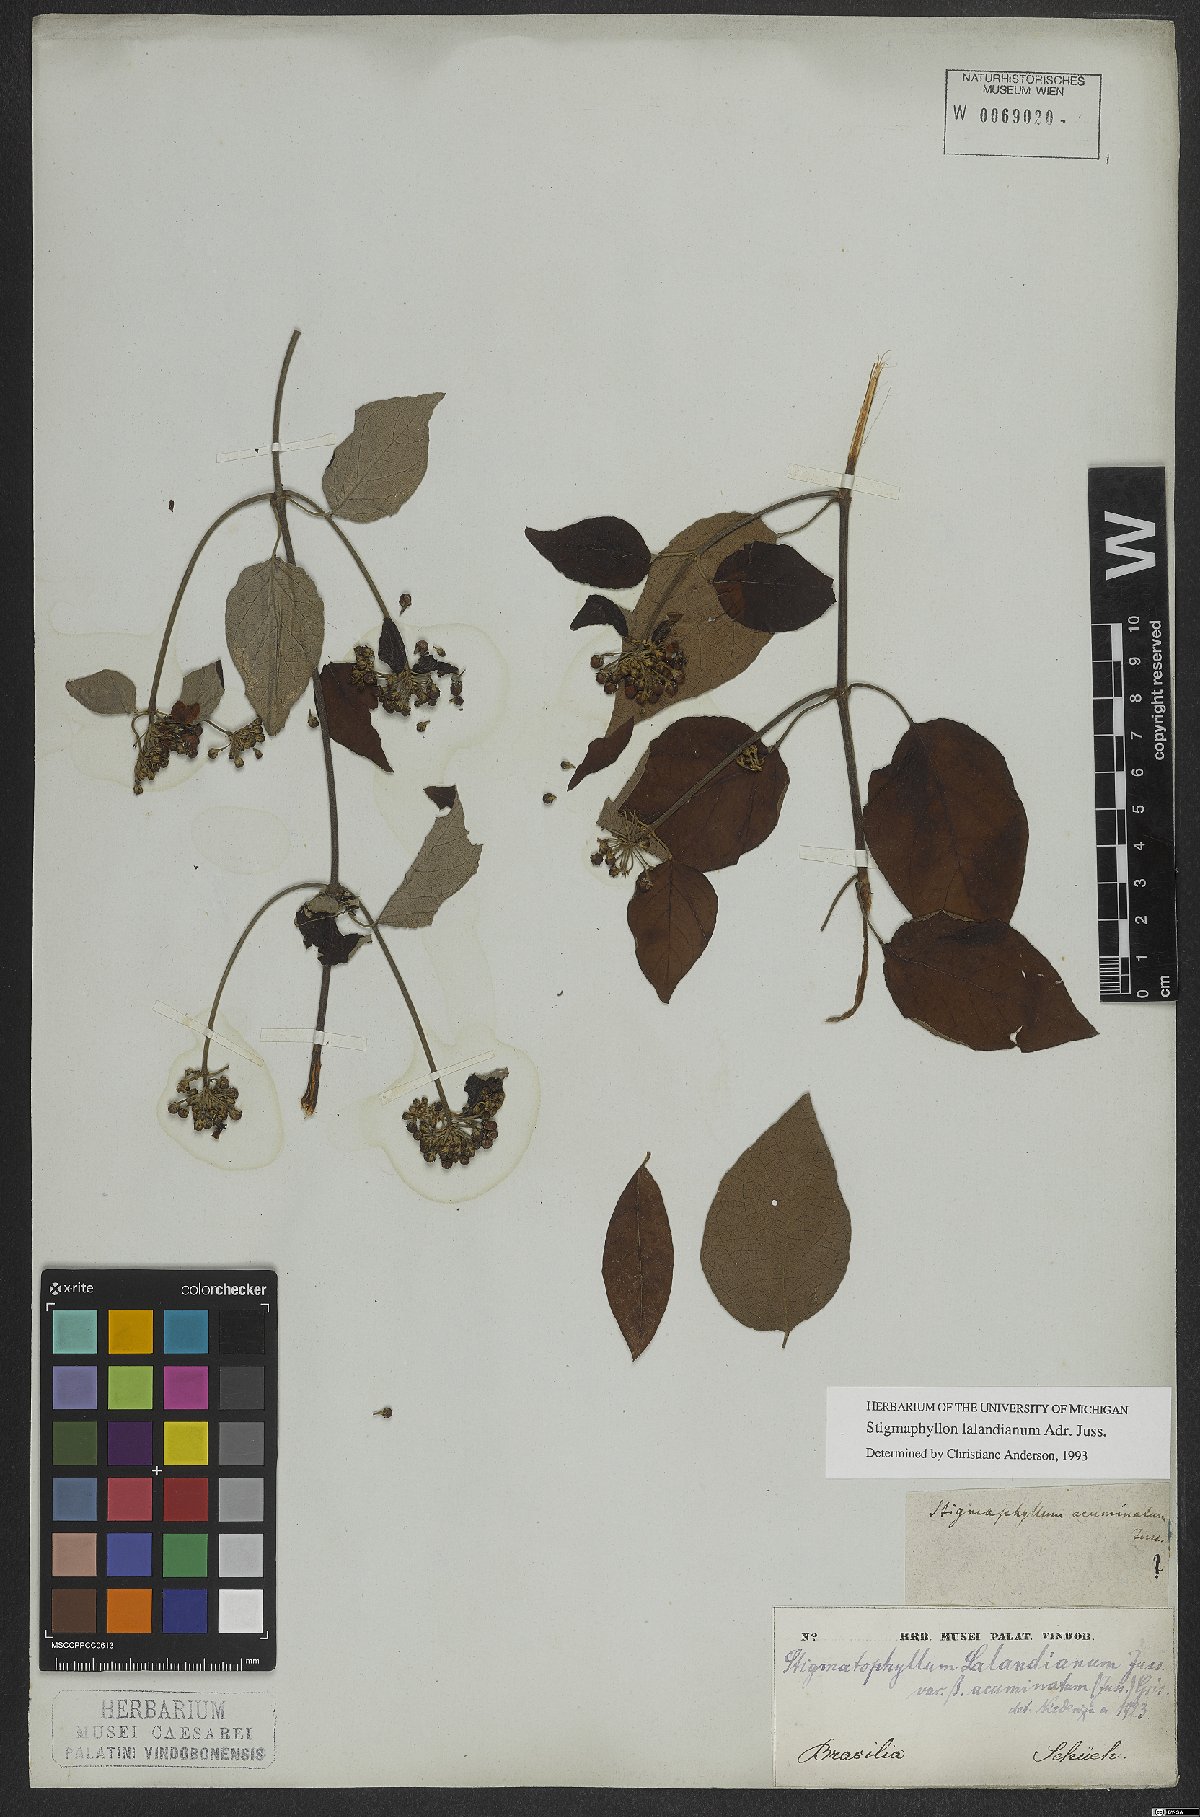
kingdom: Plantae
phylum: Tracheophyta
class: Magnoliopsida
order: Malpighiales
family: Malpighiaceae
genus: Stigmaphyllon
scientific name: Stigmaphyllon lalandianum
